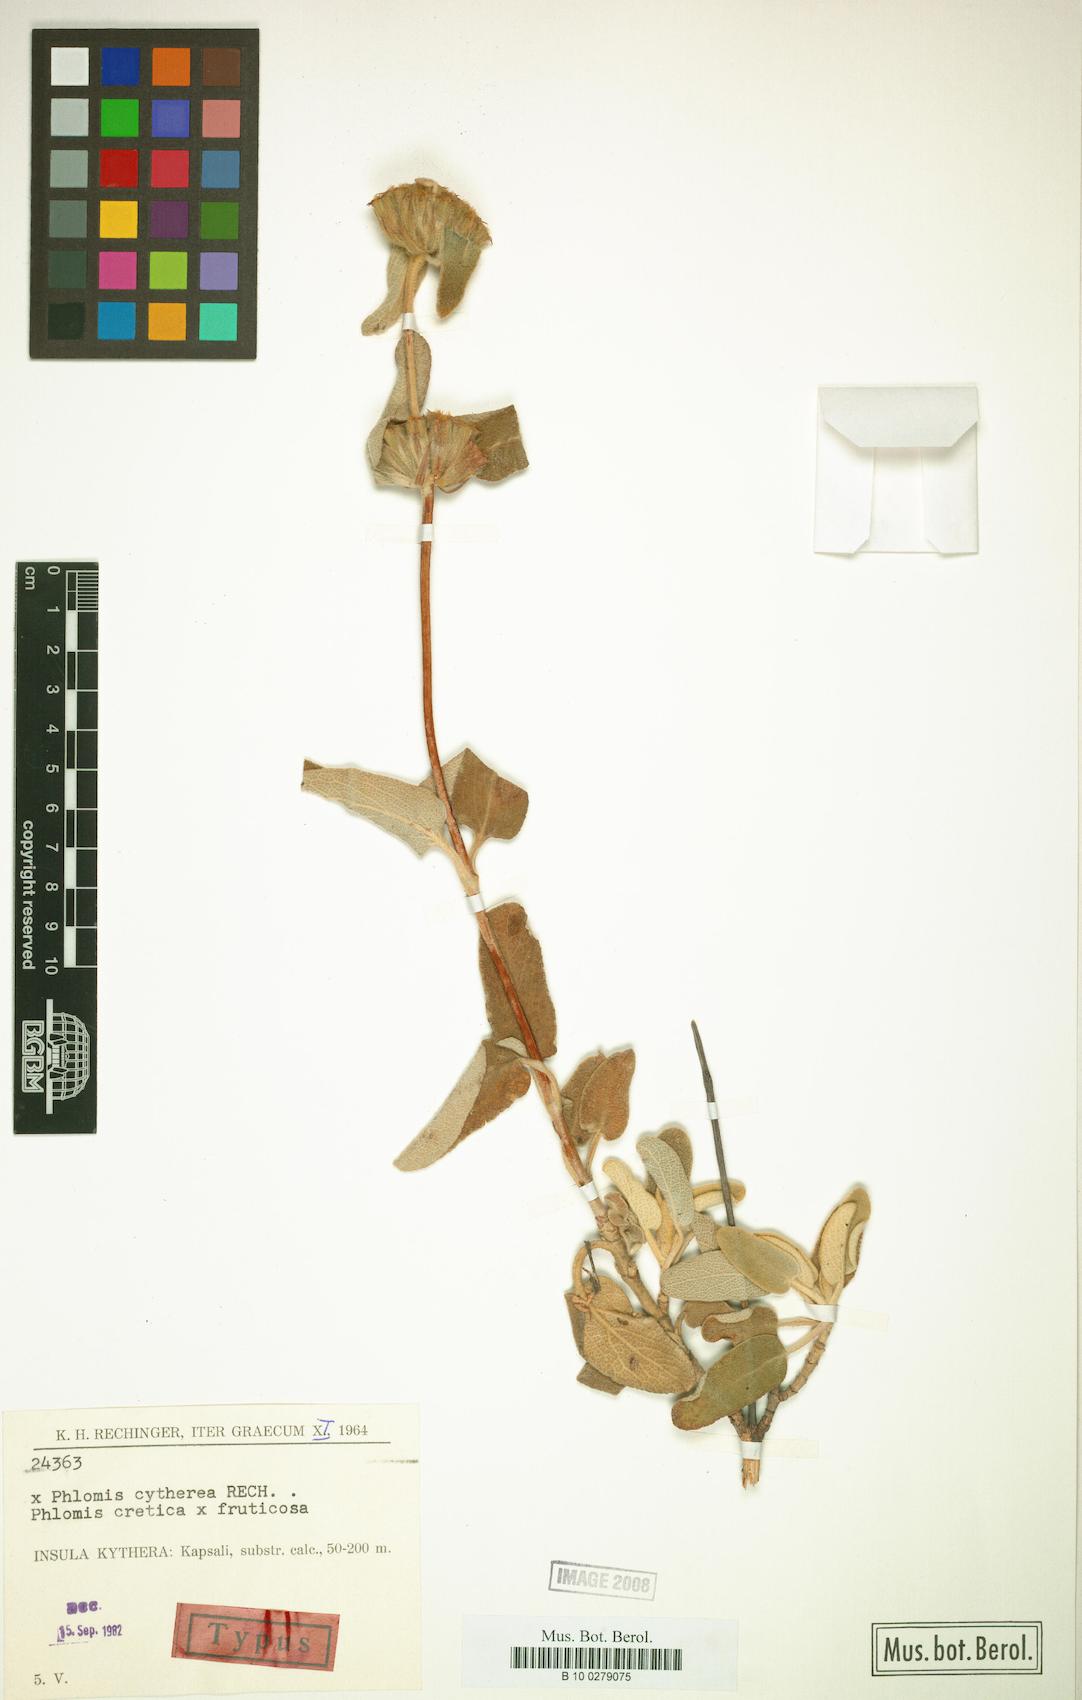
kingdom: Plantae
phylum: Tracheophyta
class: Magnoliopsida
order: Lamiales
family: Lamiaceae
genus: Phlomis
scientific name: Phlomis cytherea
